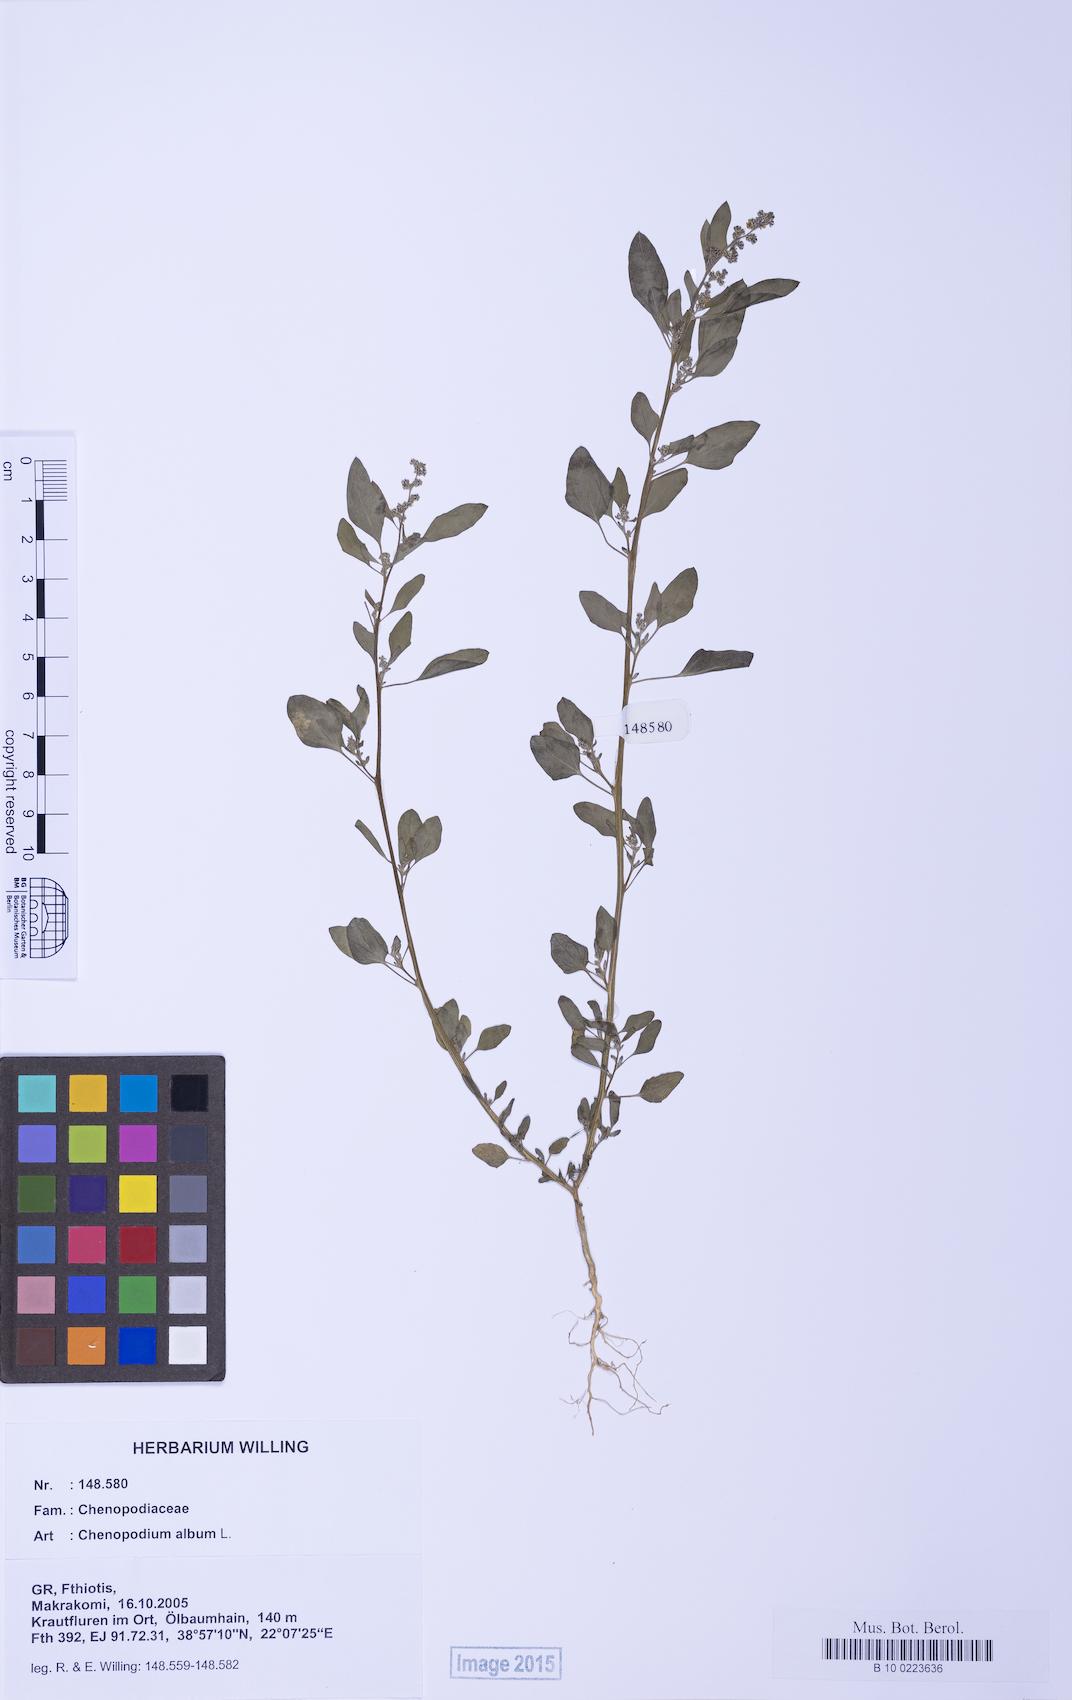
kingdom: Plantae
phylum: Tracheophyta
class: Magnoliopsida
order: Caryophyllales
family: Amaranthaceae
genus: Chenopodium
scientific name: Chenopodium album
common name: Fat-hen
